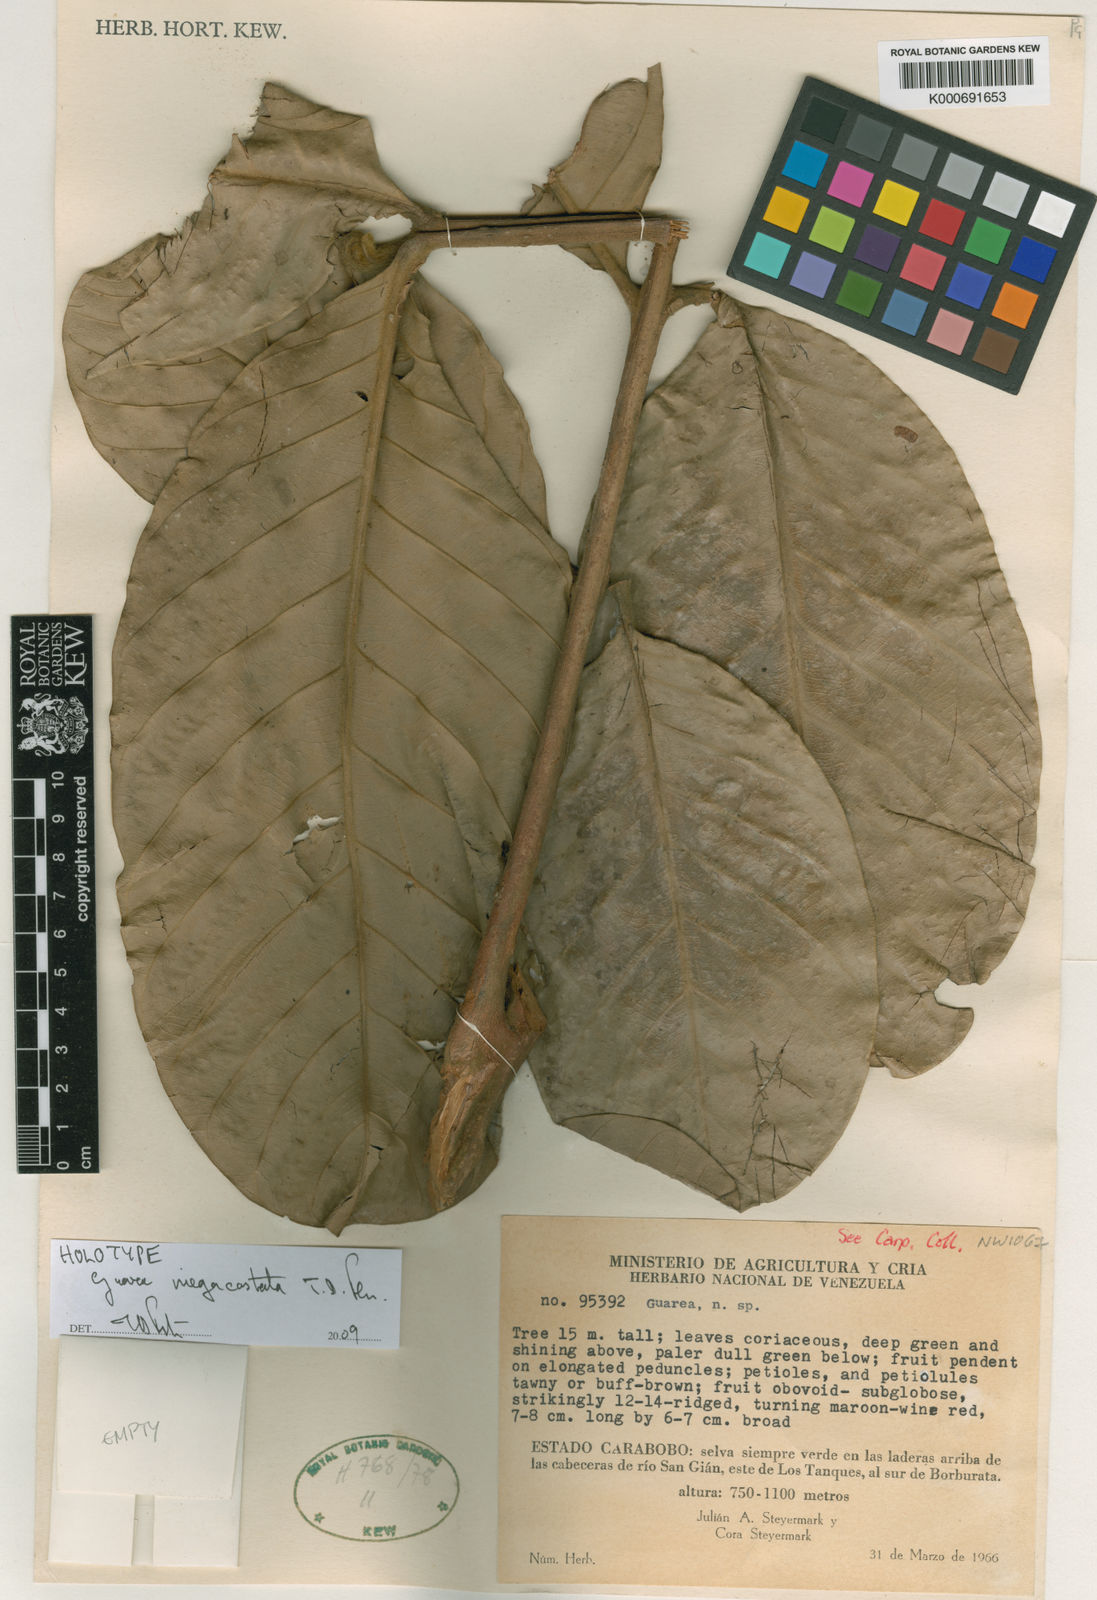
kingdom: Plantae
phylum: Tracheophyta
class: Magnoliopsida
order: Sapindales
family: Meliaceae
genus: Guarea
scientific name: Guarea megacostata
